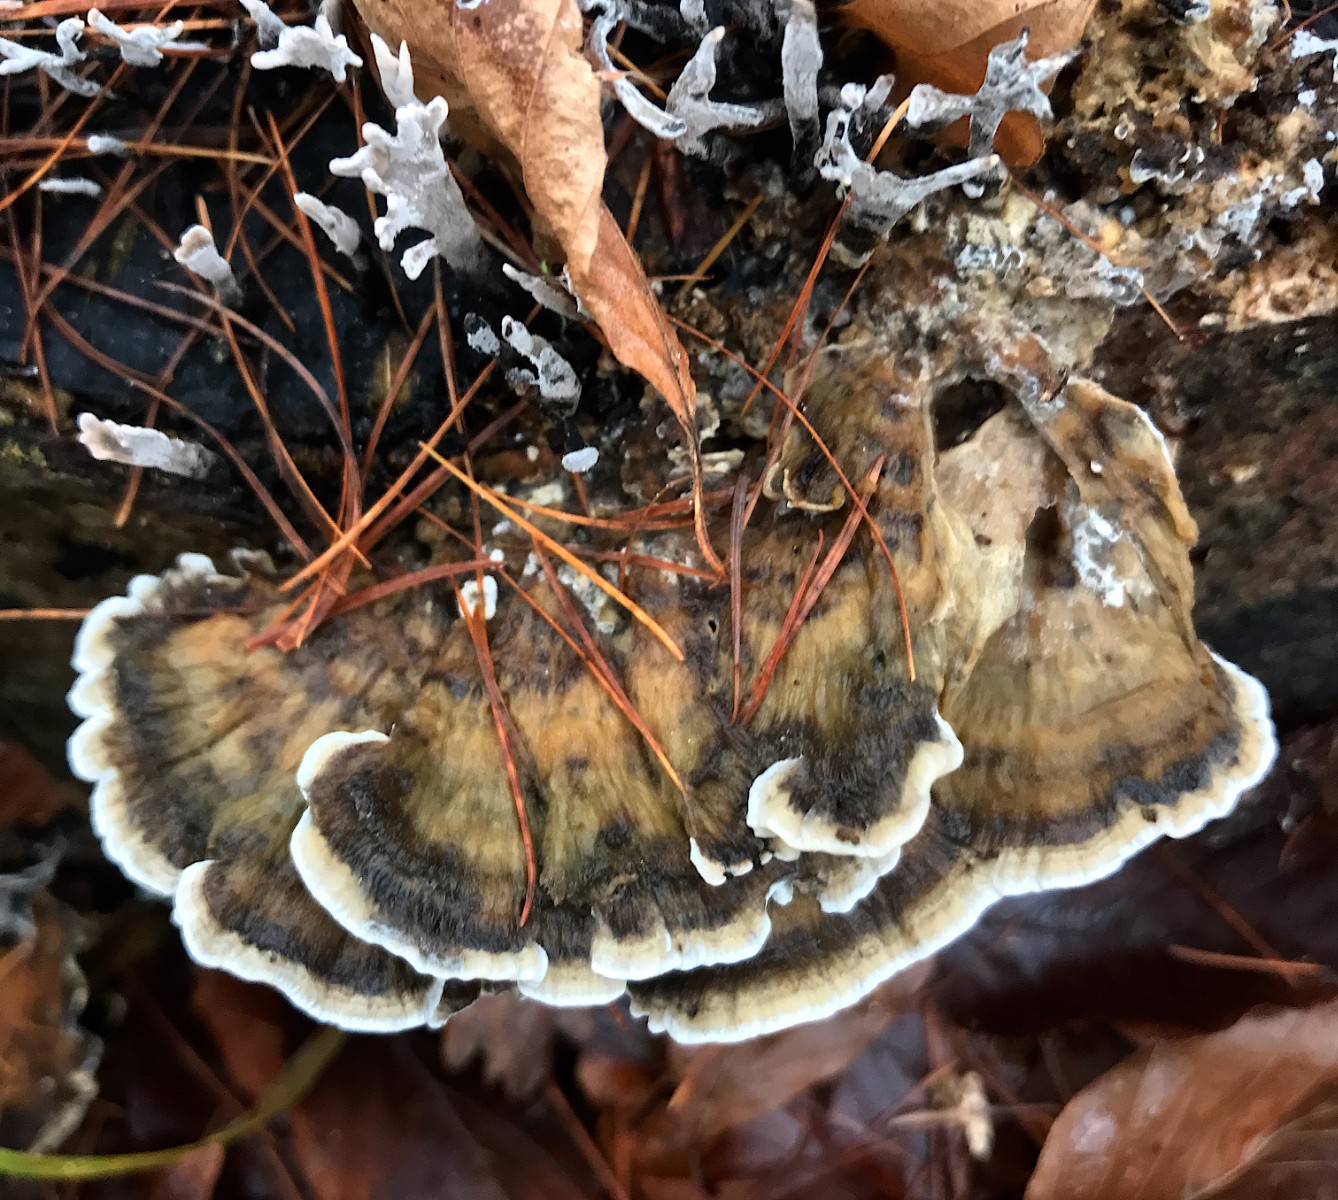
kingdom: Fungi
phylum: Basidiomycota
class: Agaricomycetes
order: Polyporales
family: Phanerochaetaceae
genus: Bjerkandera
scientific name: Bjerkandera adusta
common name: sveden sodporesvamp
